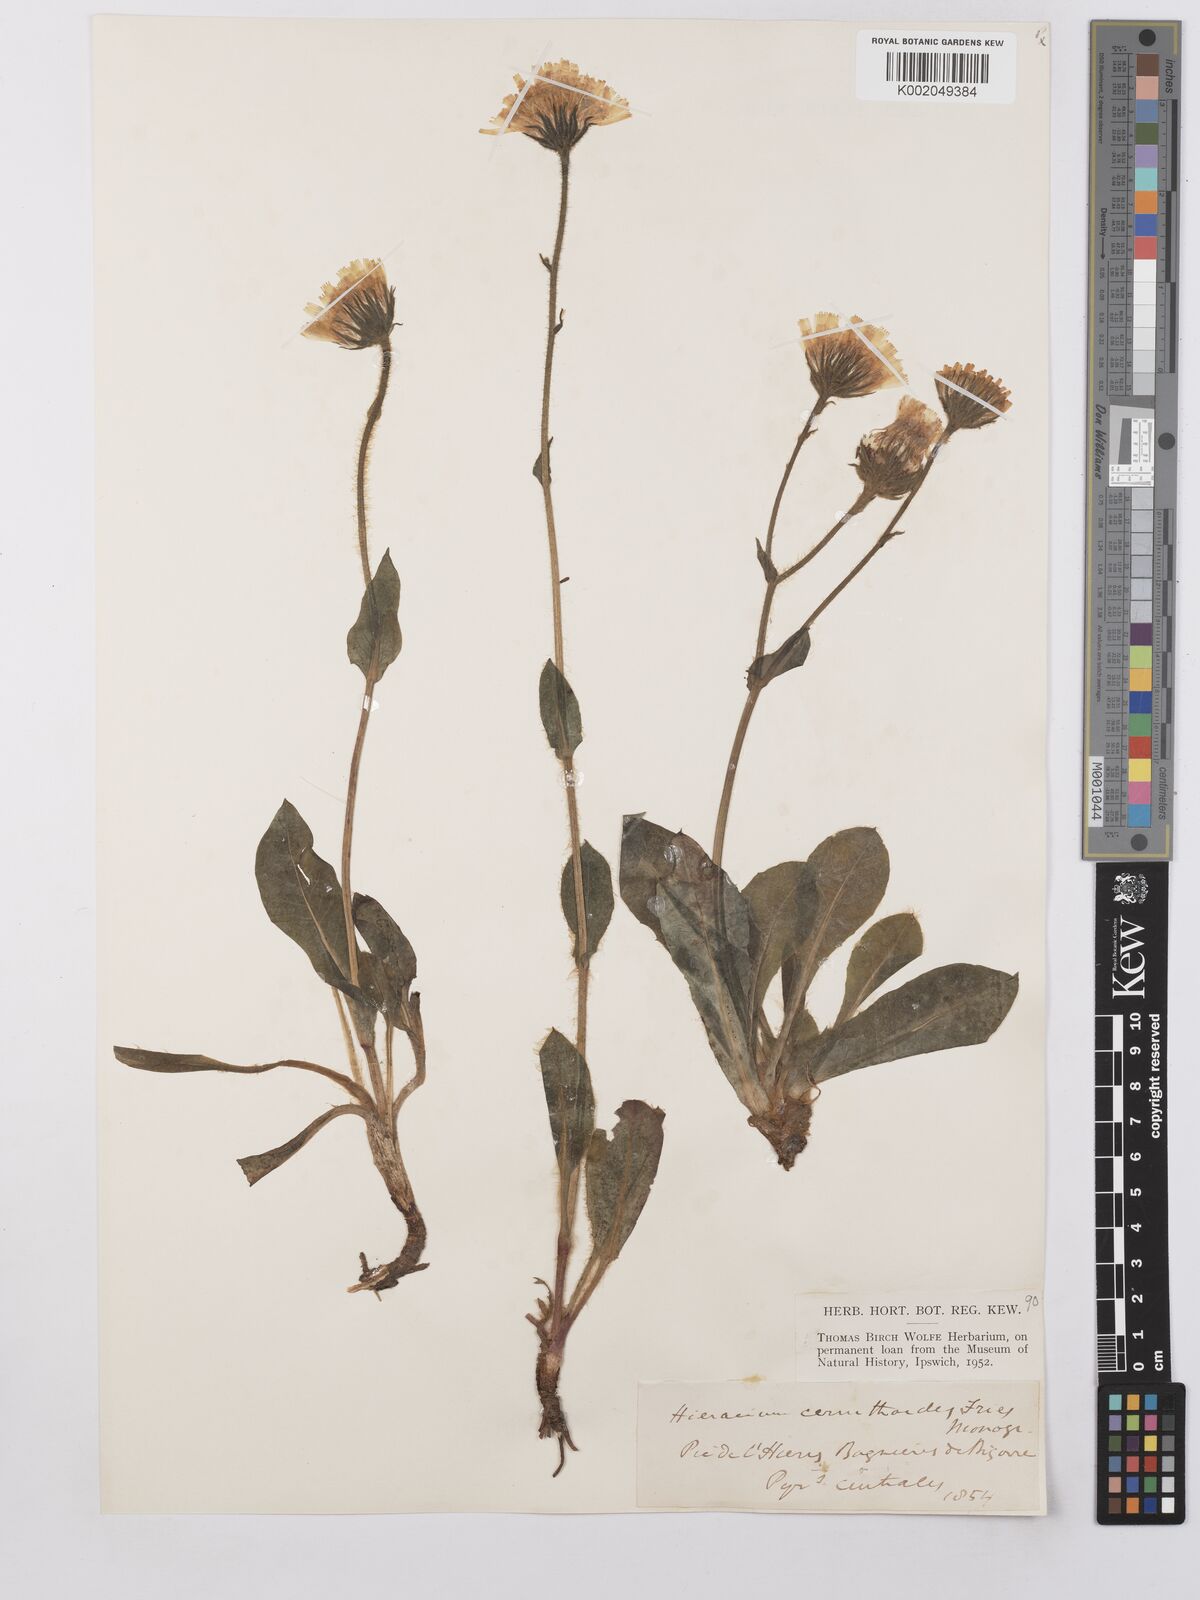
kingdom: Plantae
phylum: Tracheophyta
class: Magnoliopsida
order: Asterales
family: Asteraceae
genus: Hieracium
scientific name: Hieracium
